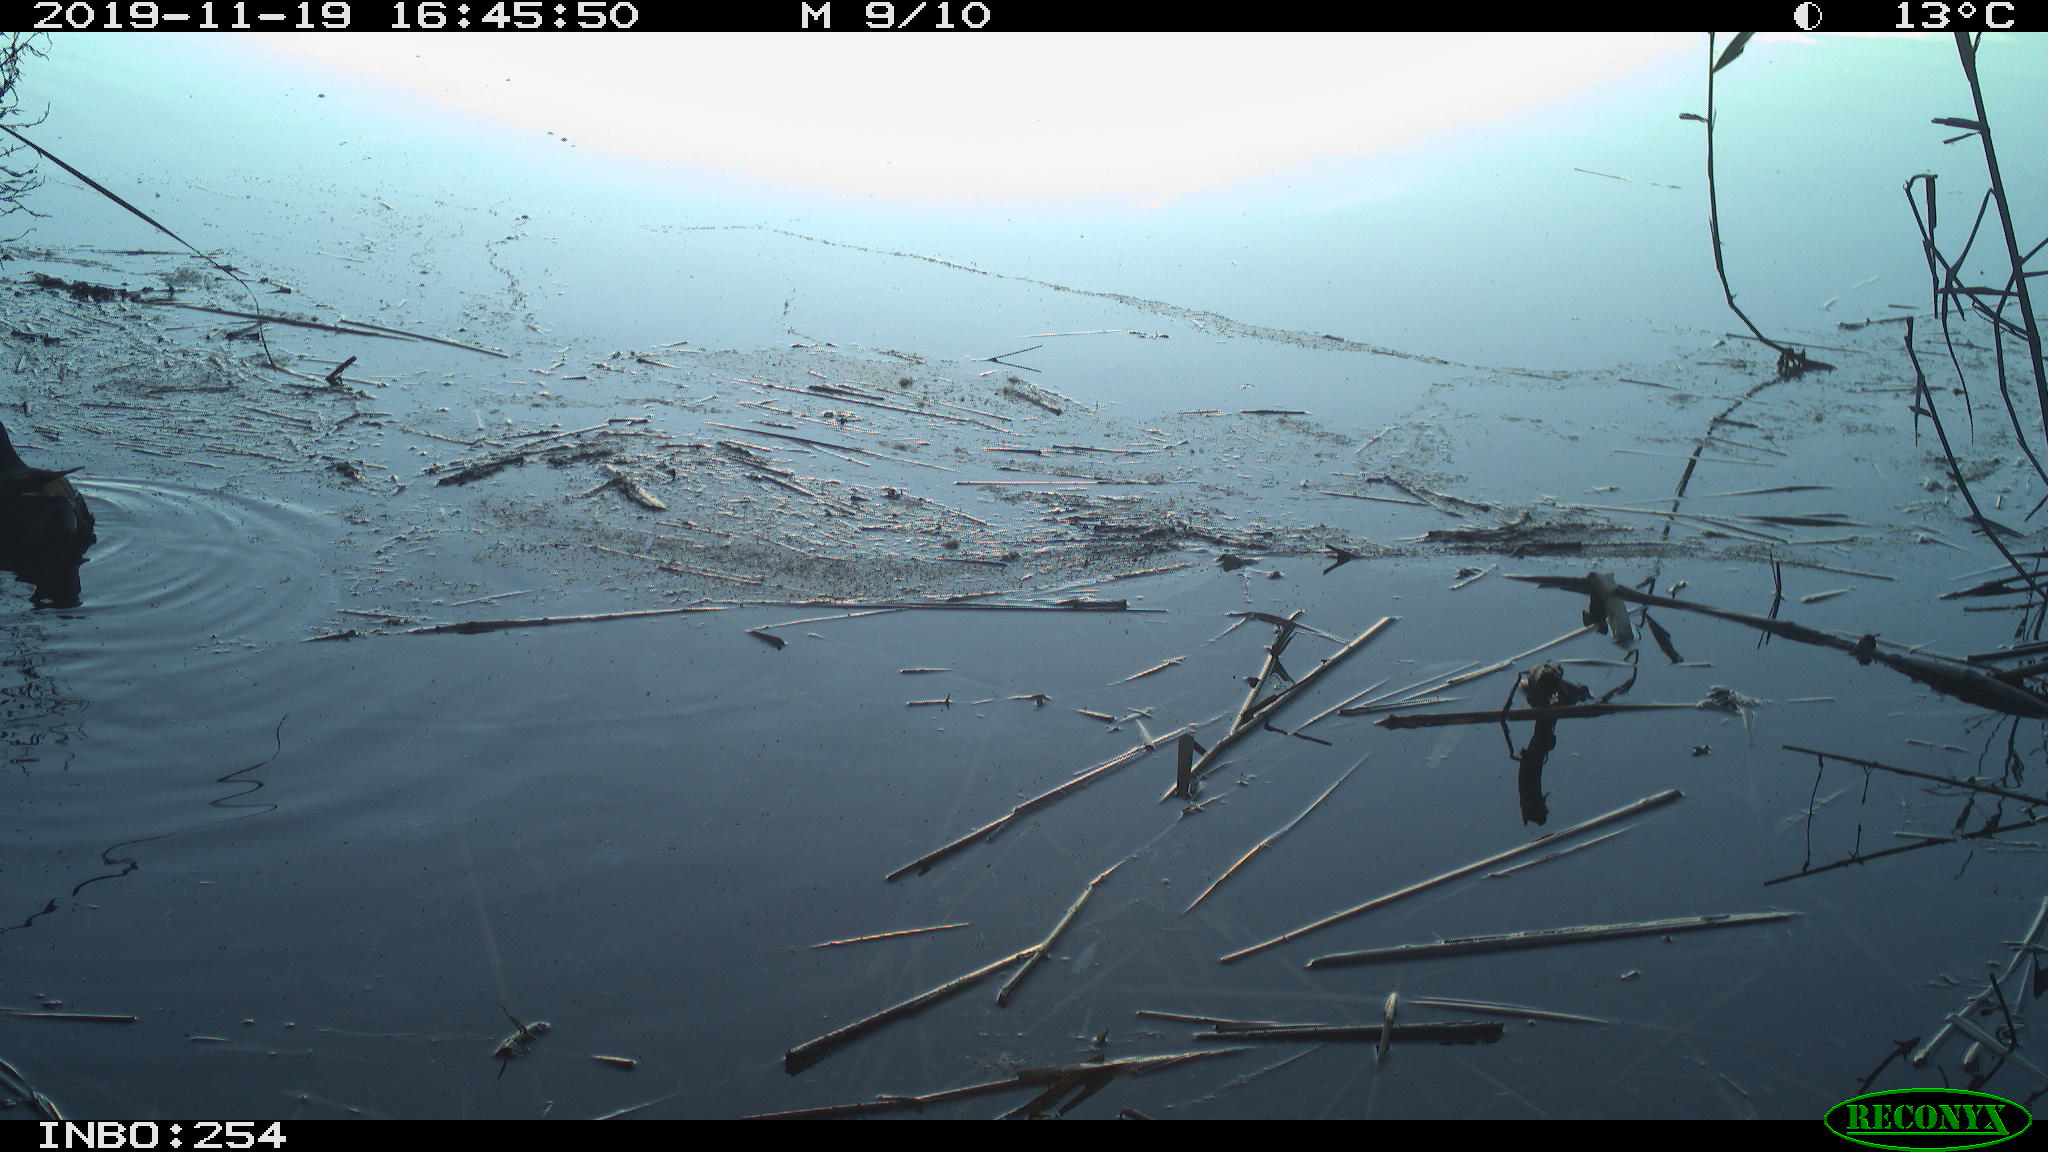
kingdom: Animalia
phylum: Chordata
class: Aves
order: Gruiformes
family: Rallidae
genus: Gallinula
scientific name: Gallinula chloropus
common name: Common moorhen
